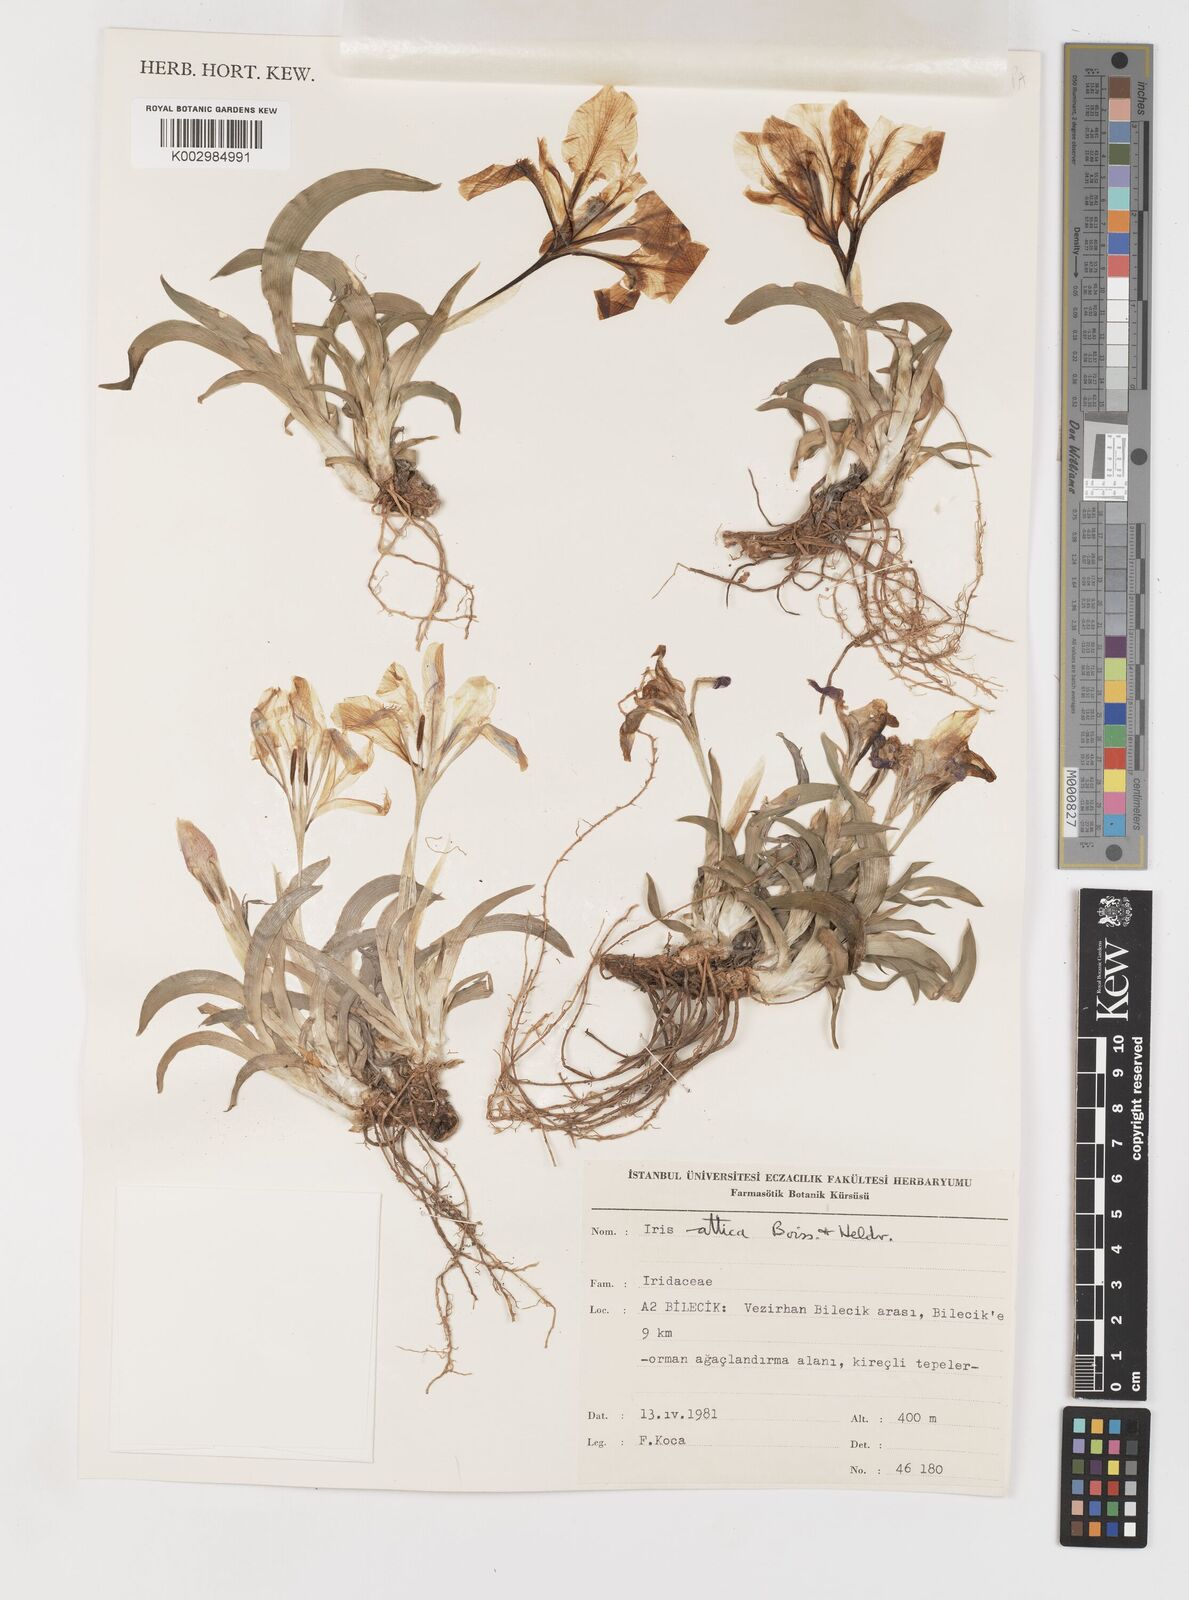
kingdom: Plantae
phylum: Tracheophyta
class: Liliopsida
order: Asparagales
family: Iridaceae
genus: Iris
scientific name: Iris pumila
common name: Dwarf iris
